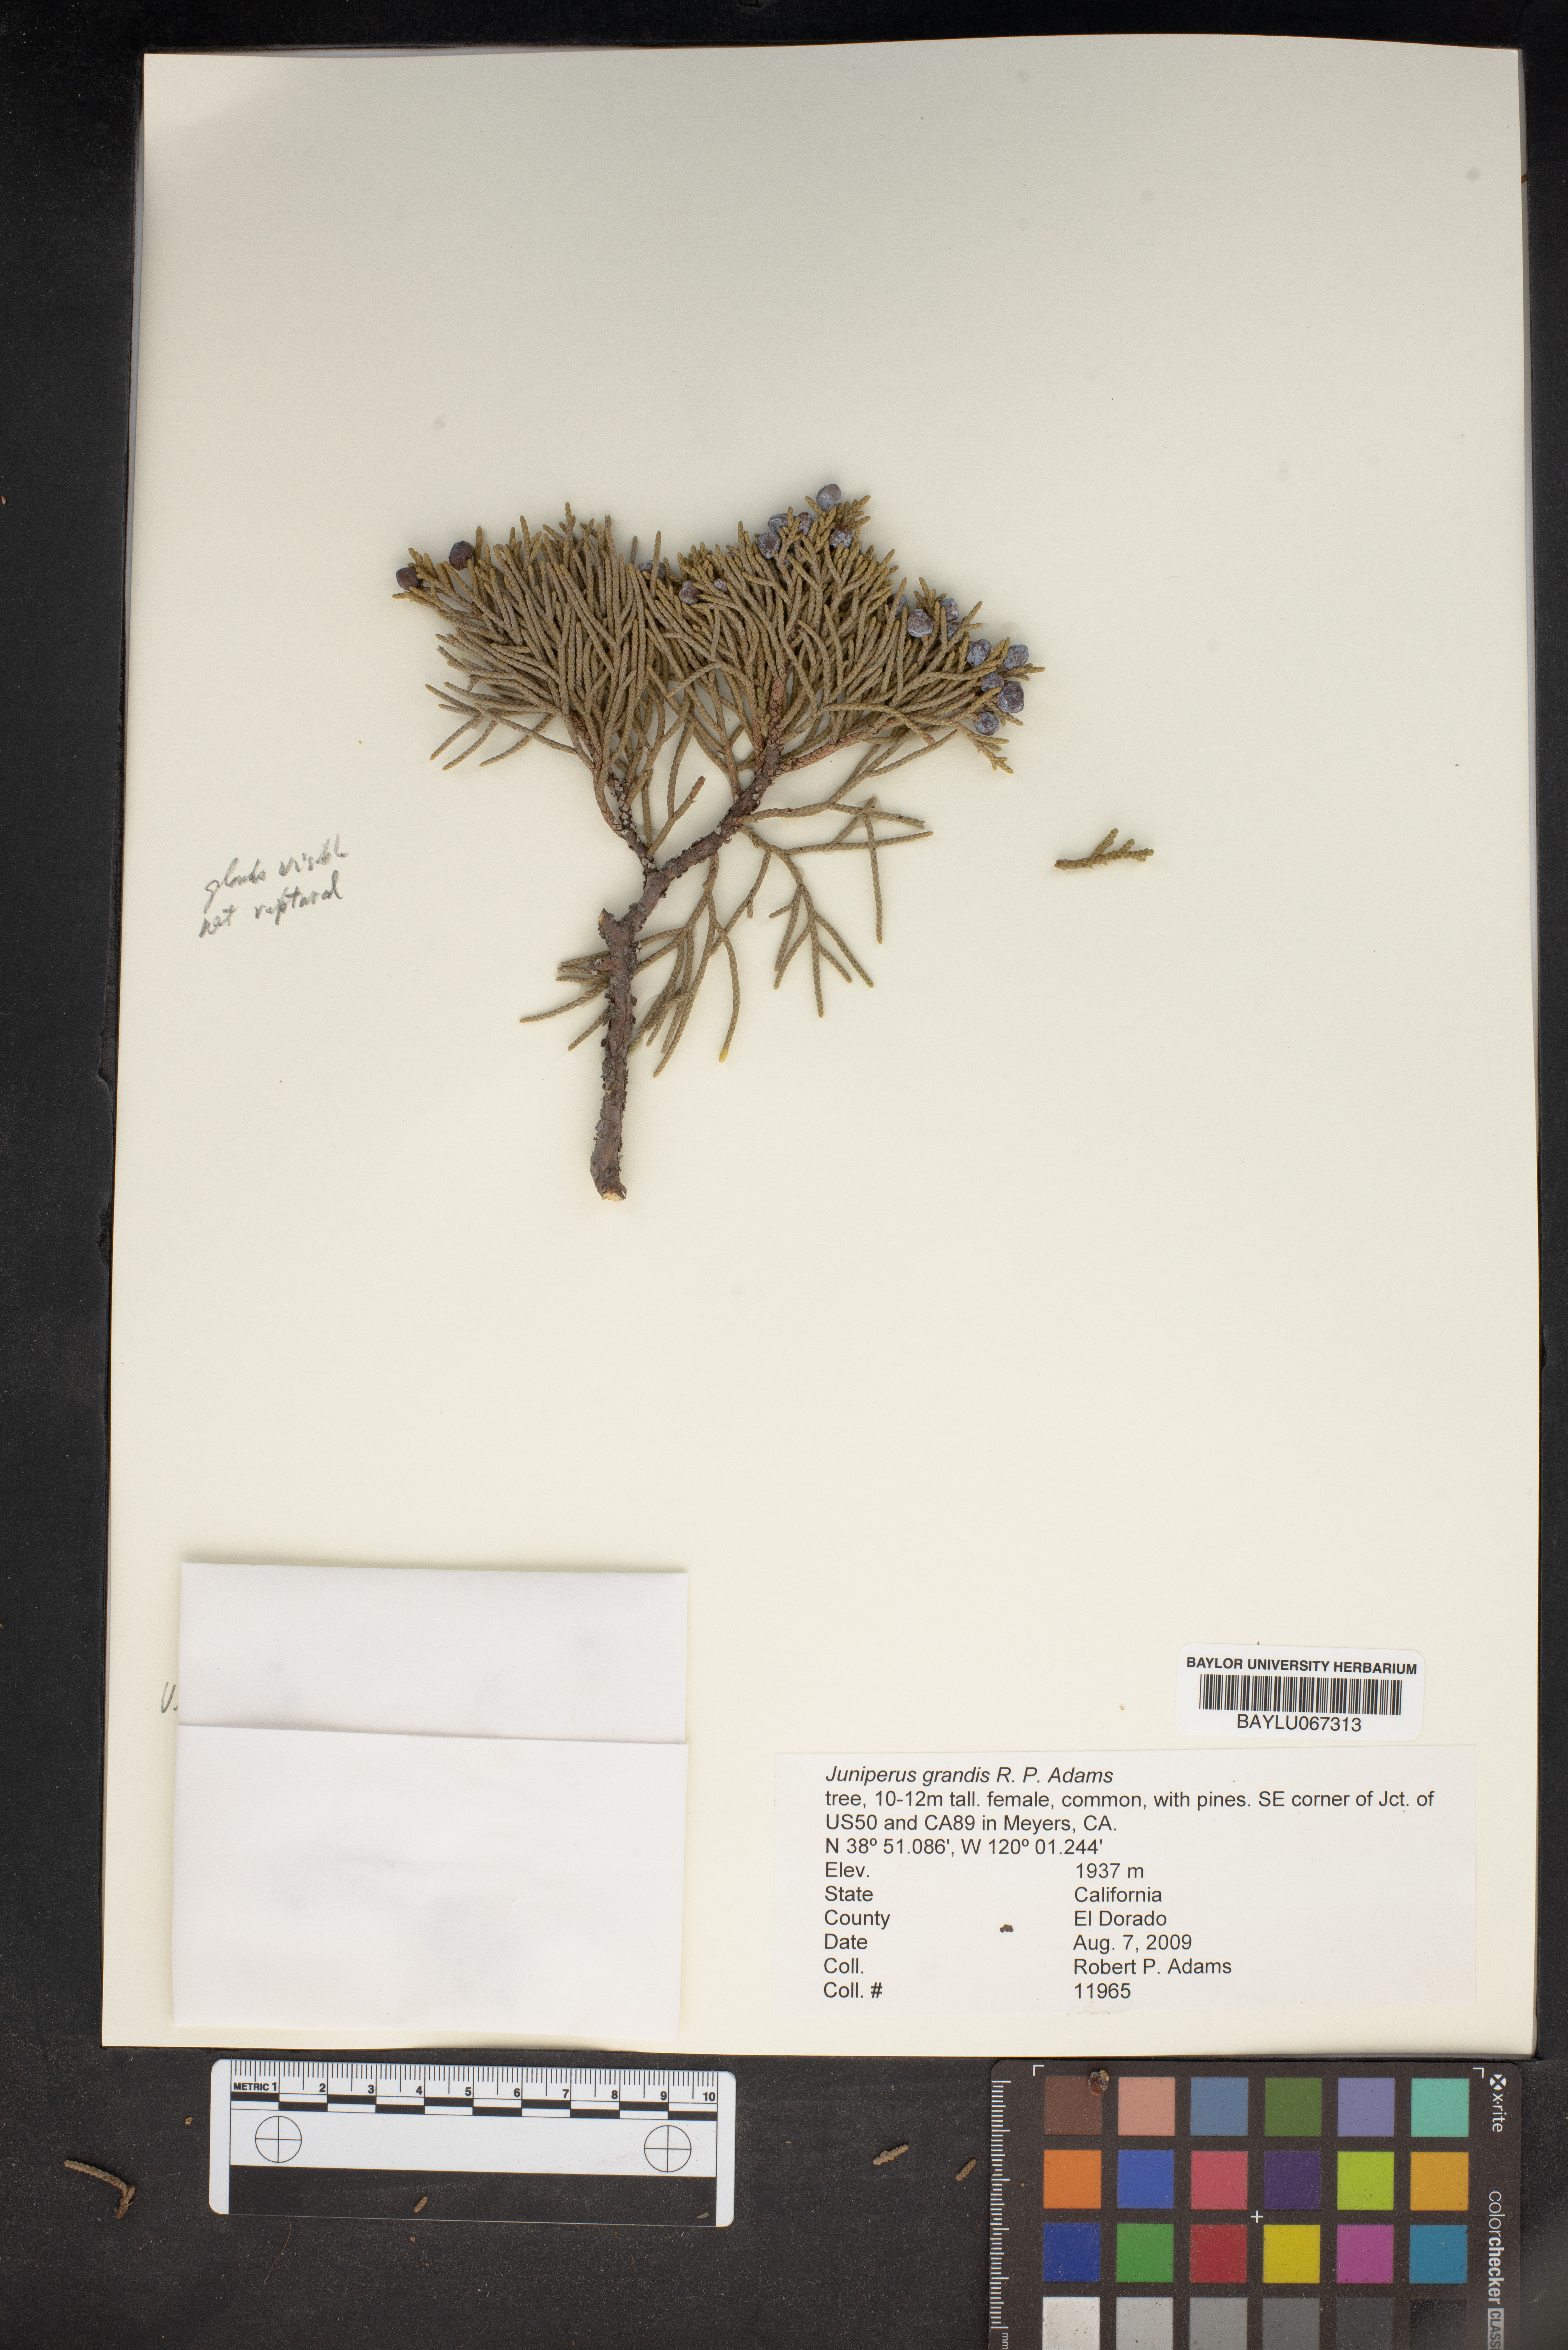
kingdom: Plantae
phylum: Tracheophyta
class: Pinopsida
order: Pinales
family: Cupressaceae
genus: Juniperus
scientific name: Juniperus occidentalis
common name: Western juniper
